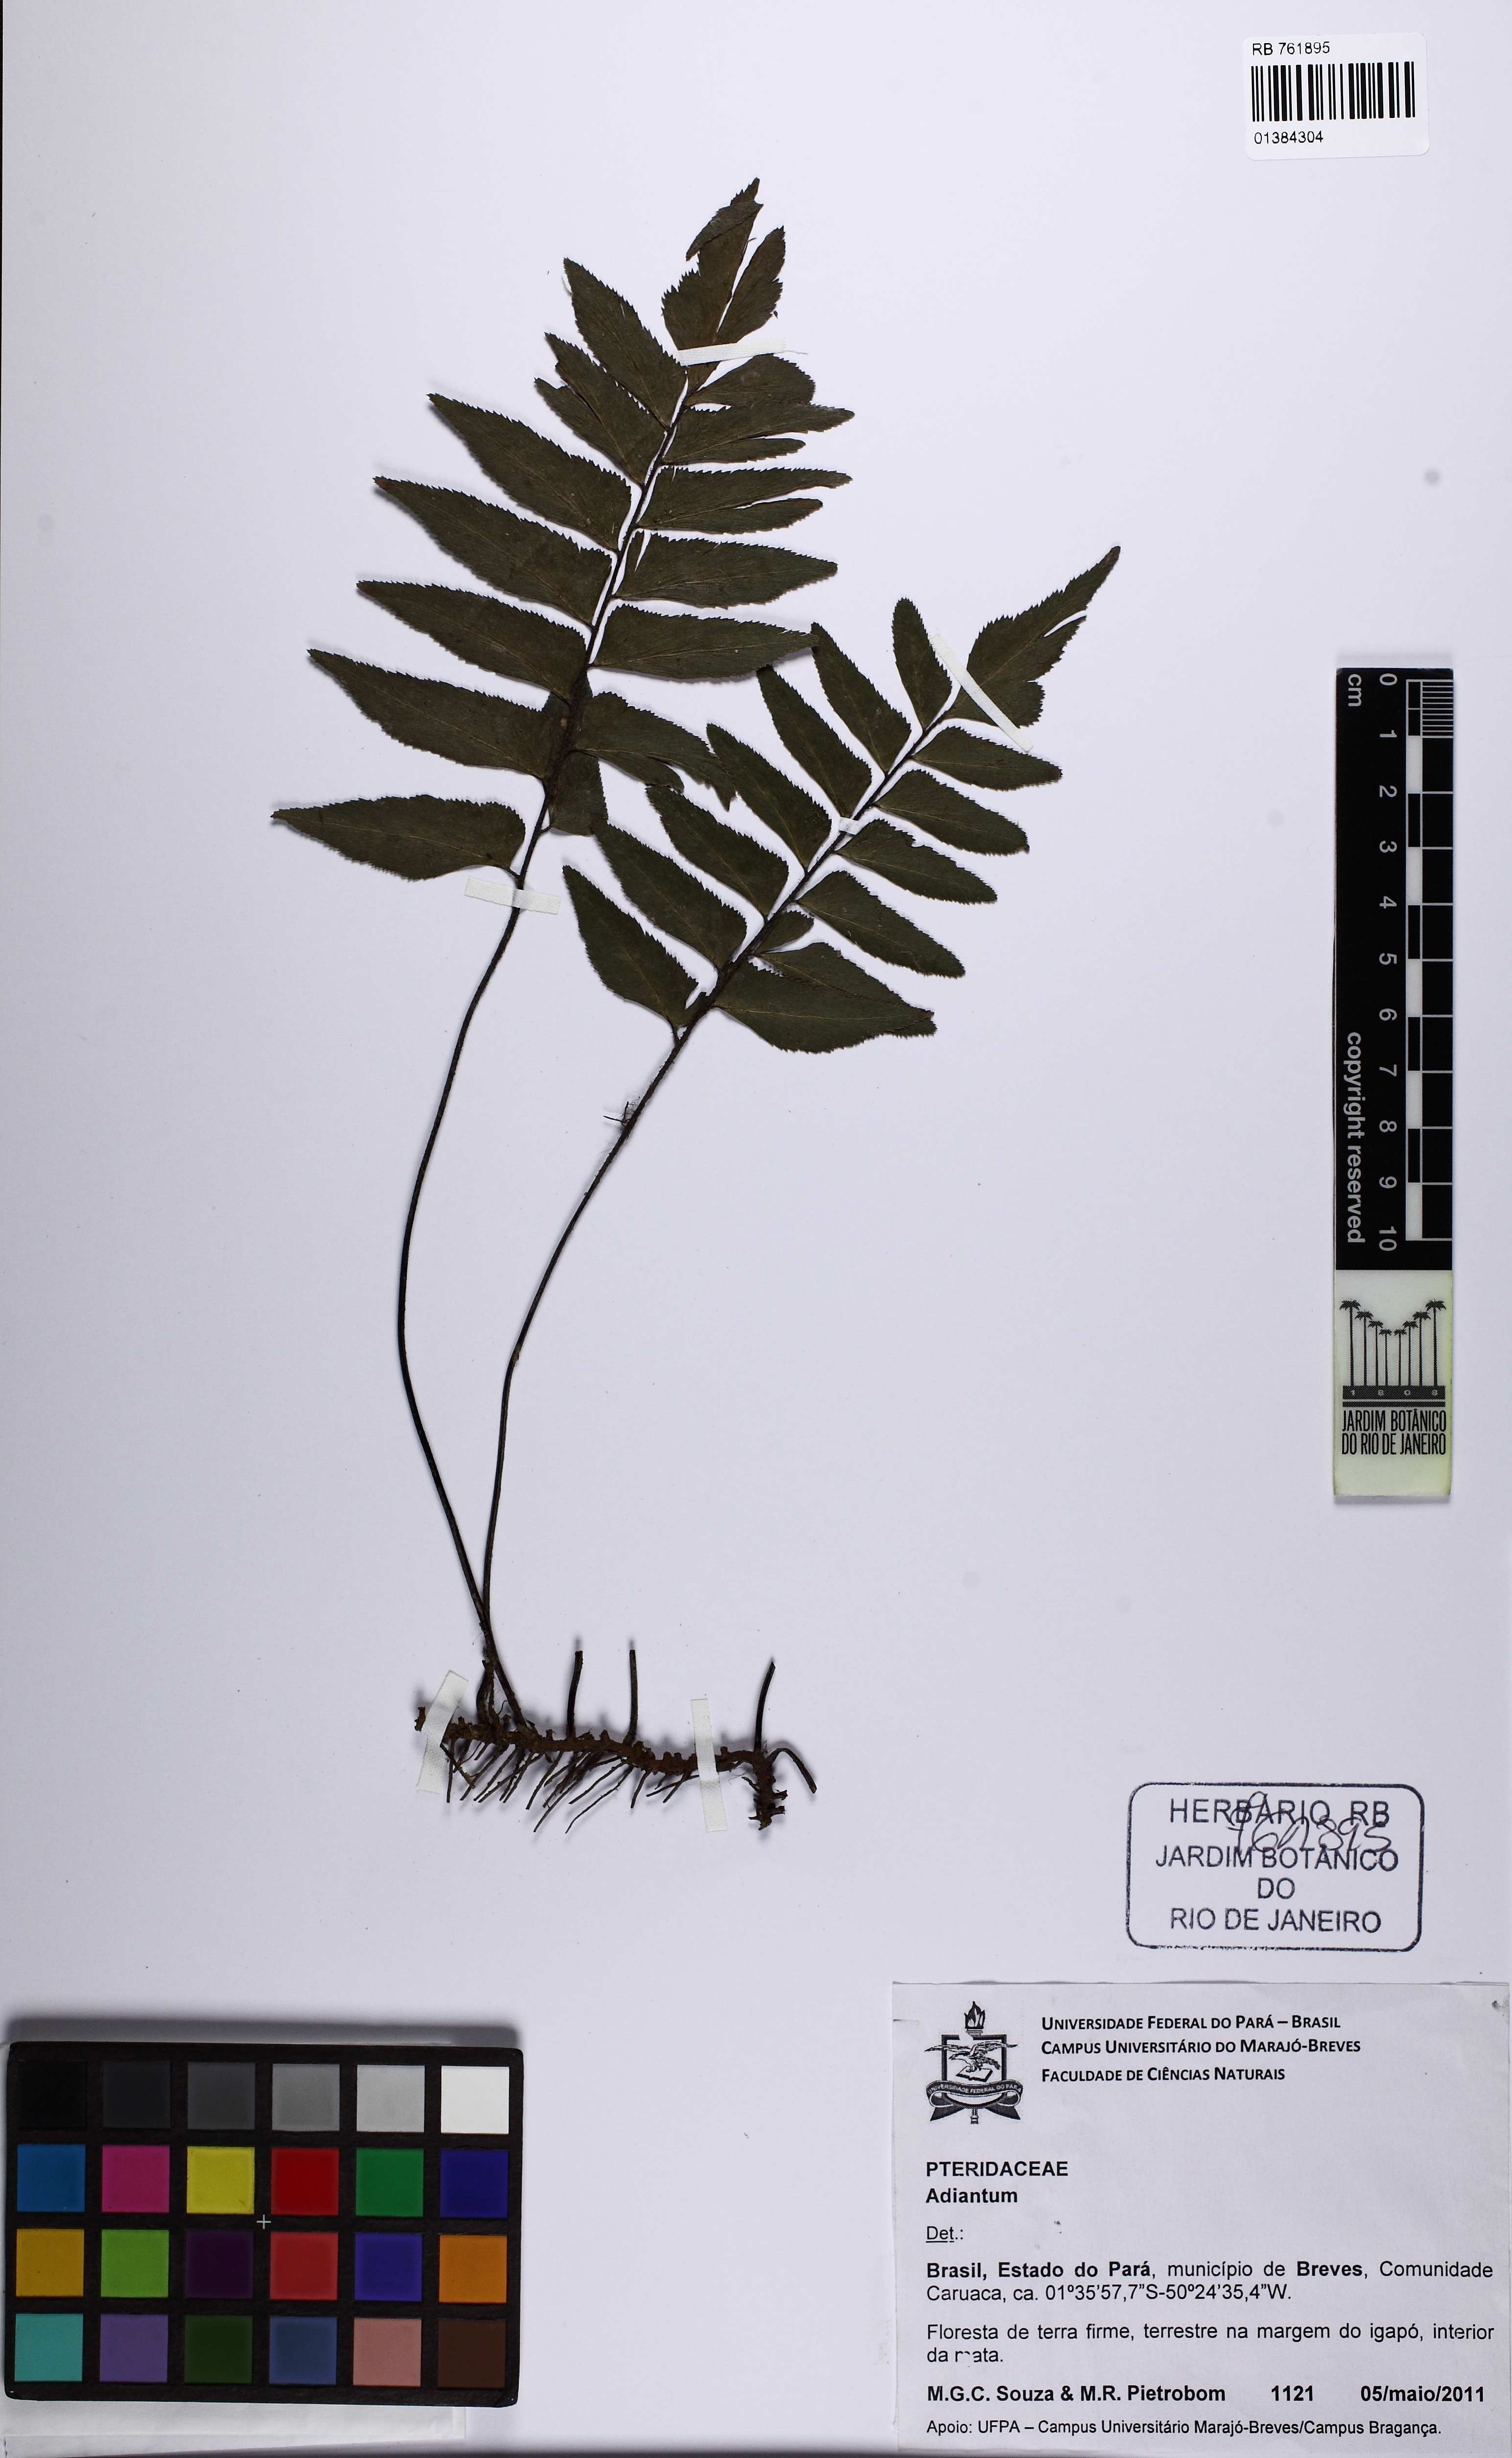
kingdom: Plantae
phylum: Tracheophyta
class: Polypodiopsida
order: Polypodiales
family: Pteridaceae
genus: Adiantum
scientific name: Adiantum
